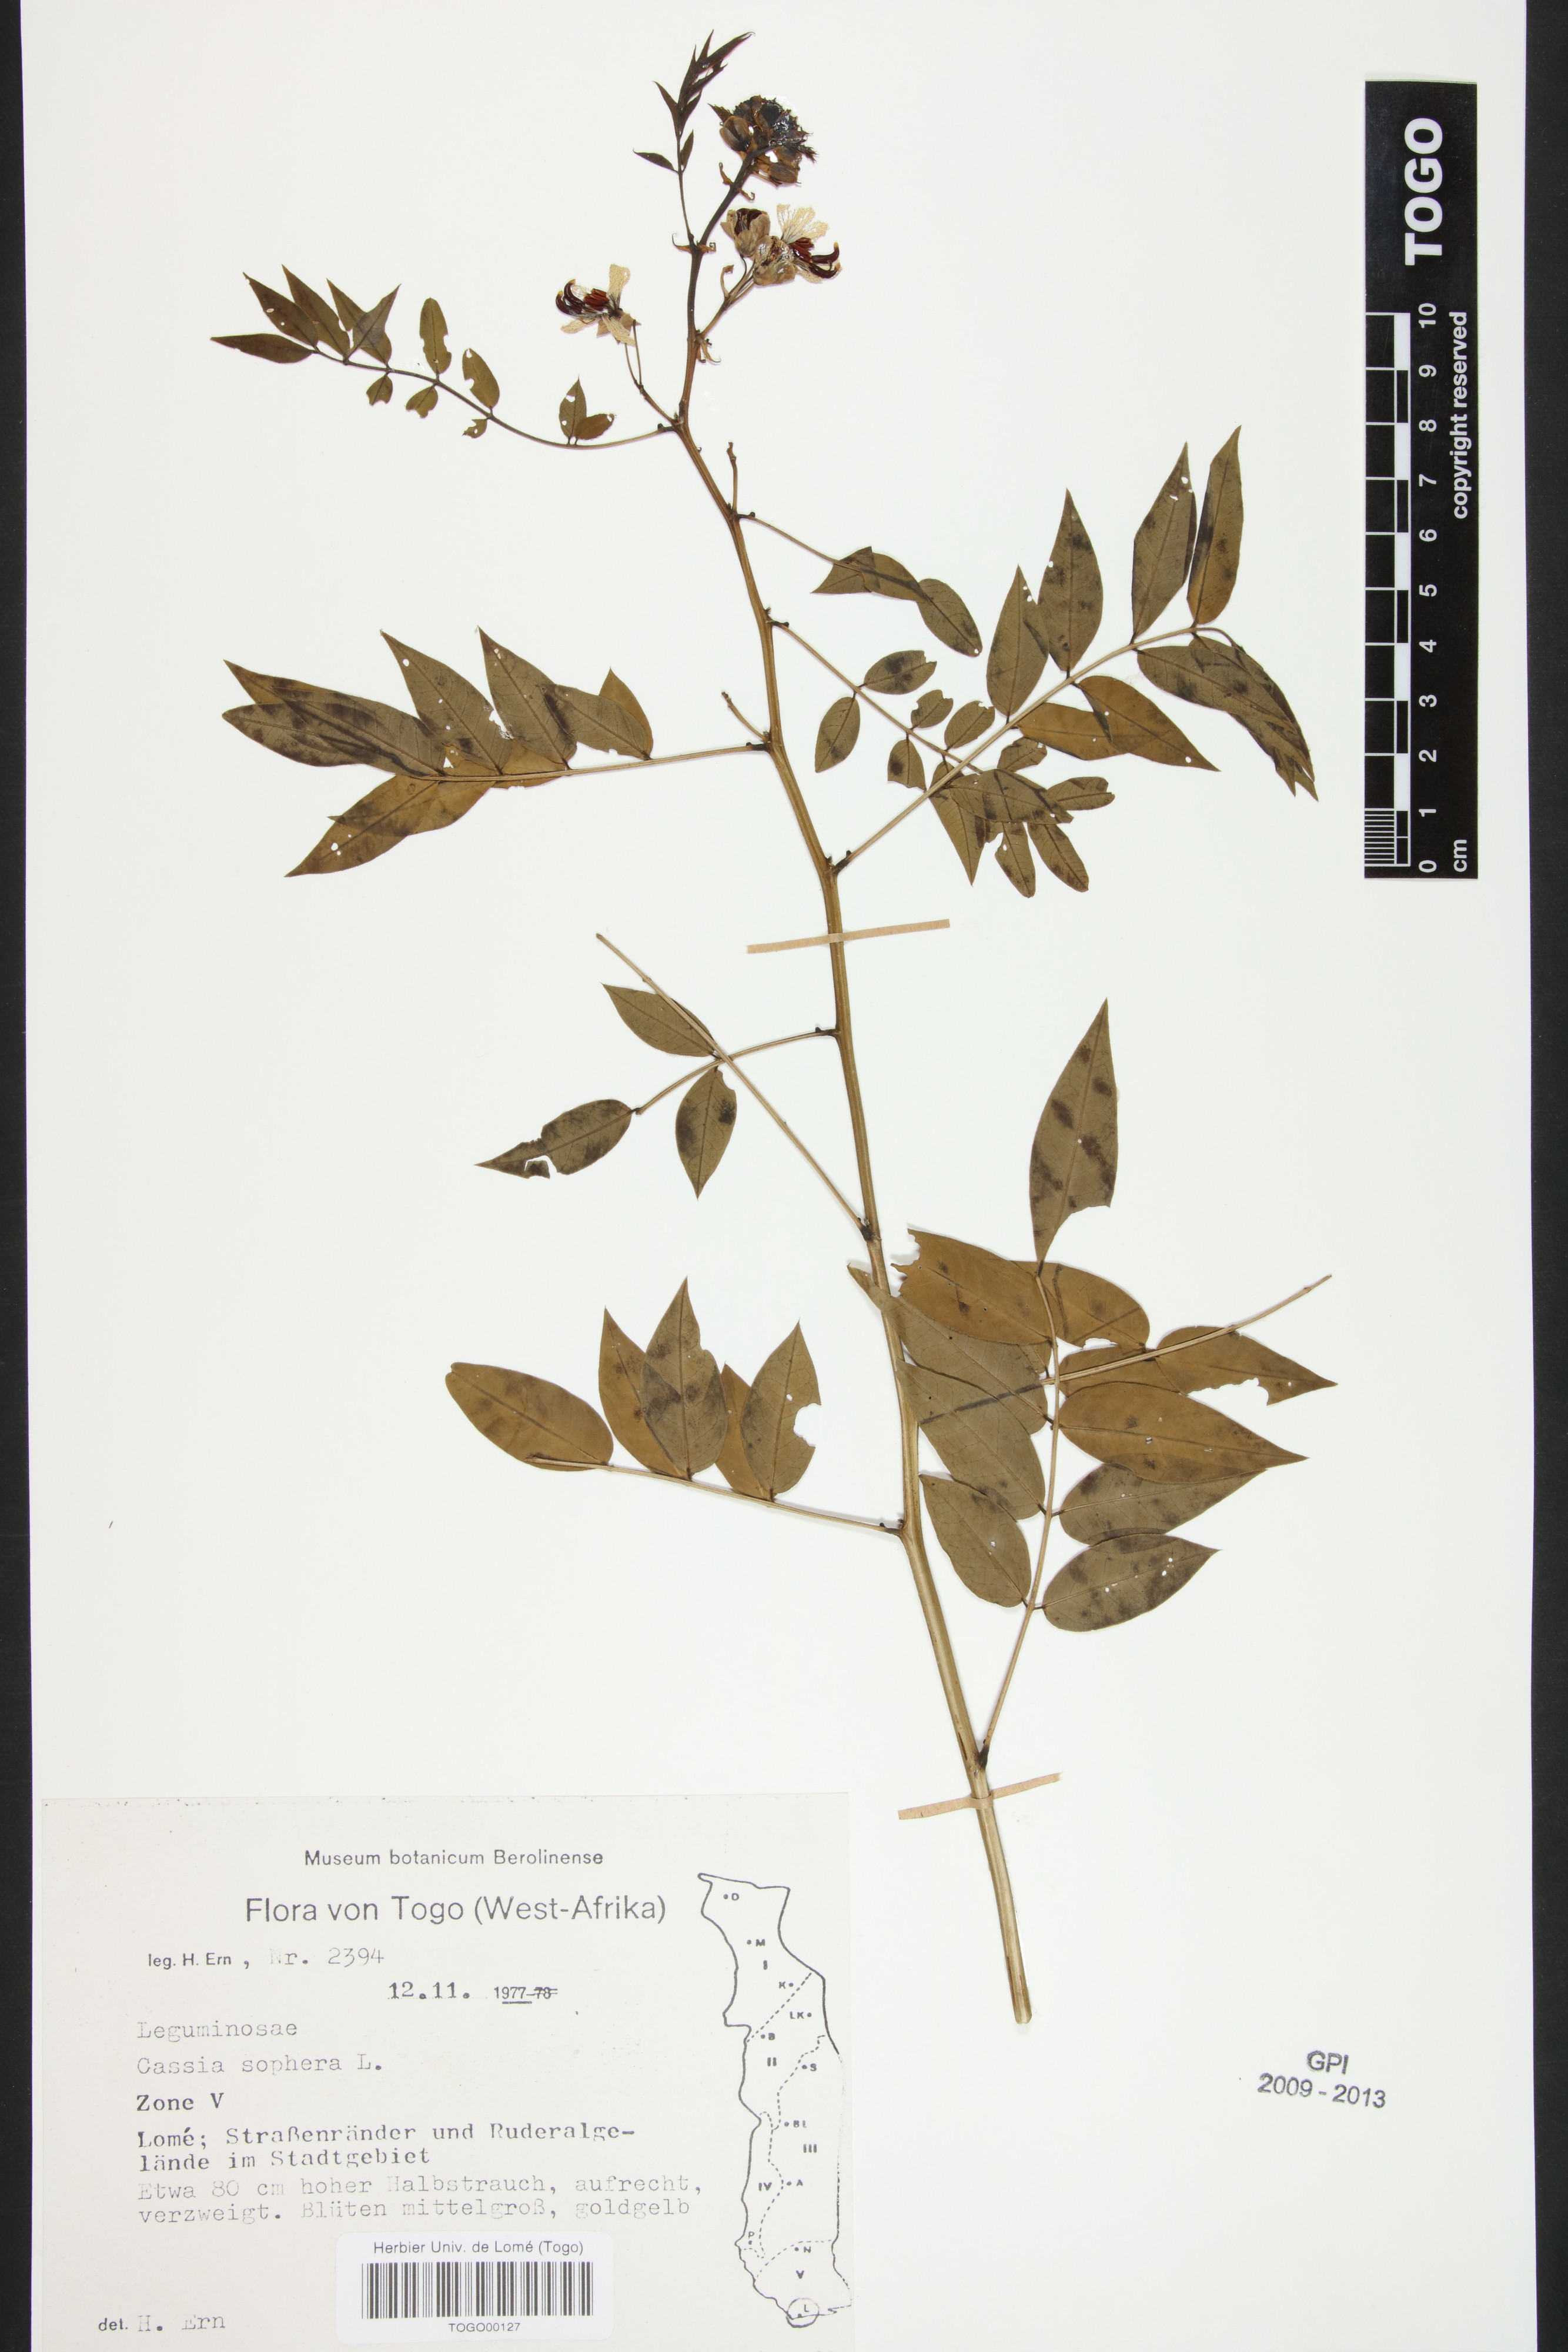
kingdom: Plantae
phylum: Tracheophyta
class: Magnoliopsida
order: Fabales
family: Fabaceae
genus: Senna
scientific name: Senna sophera
